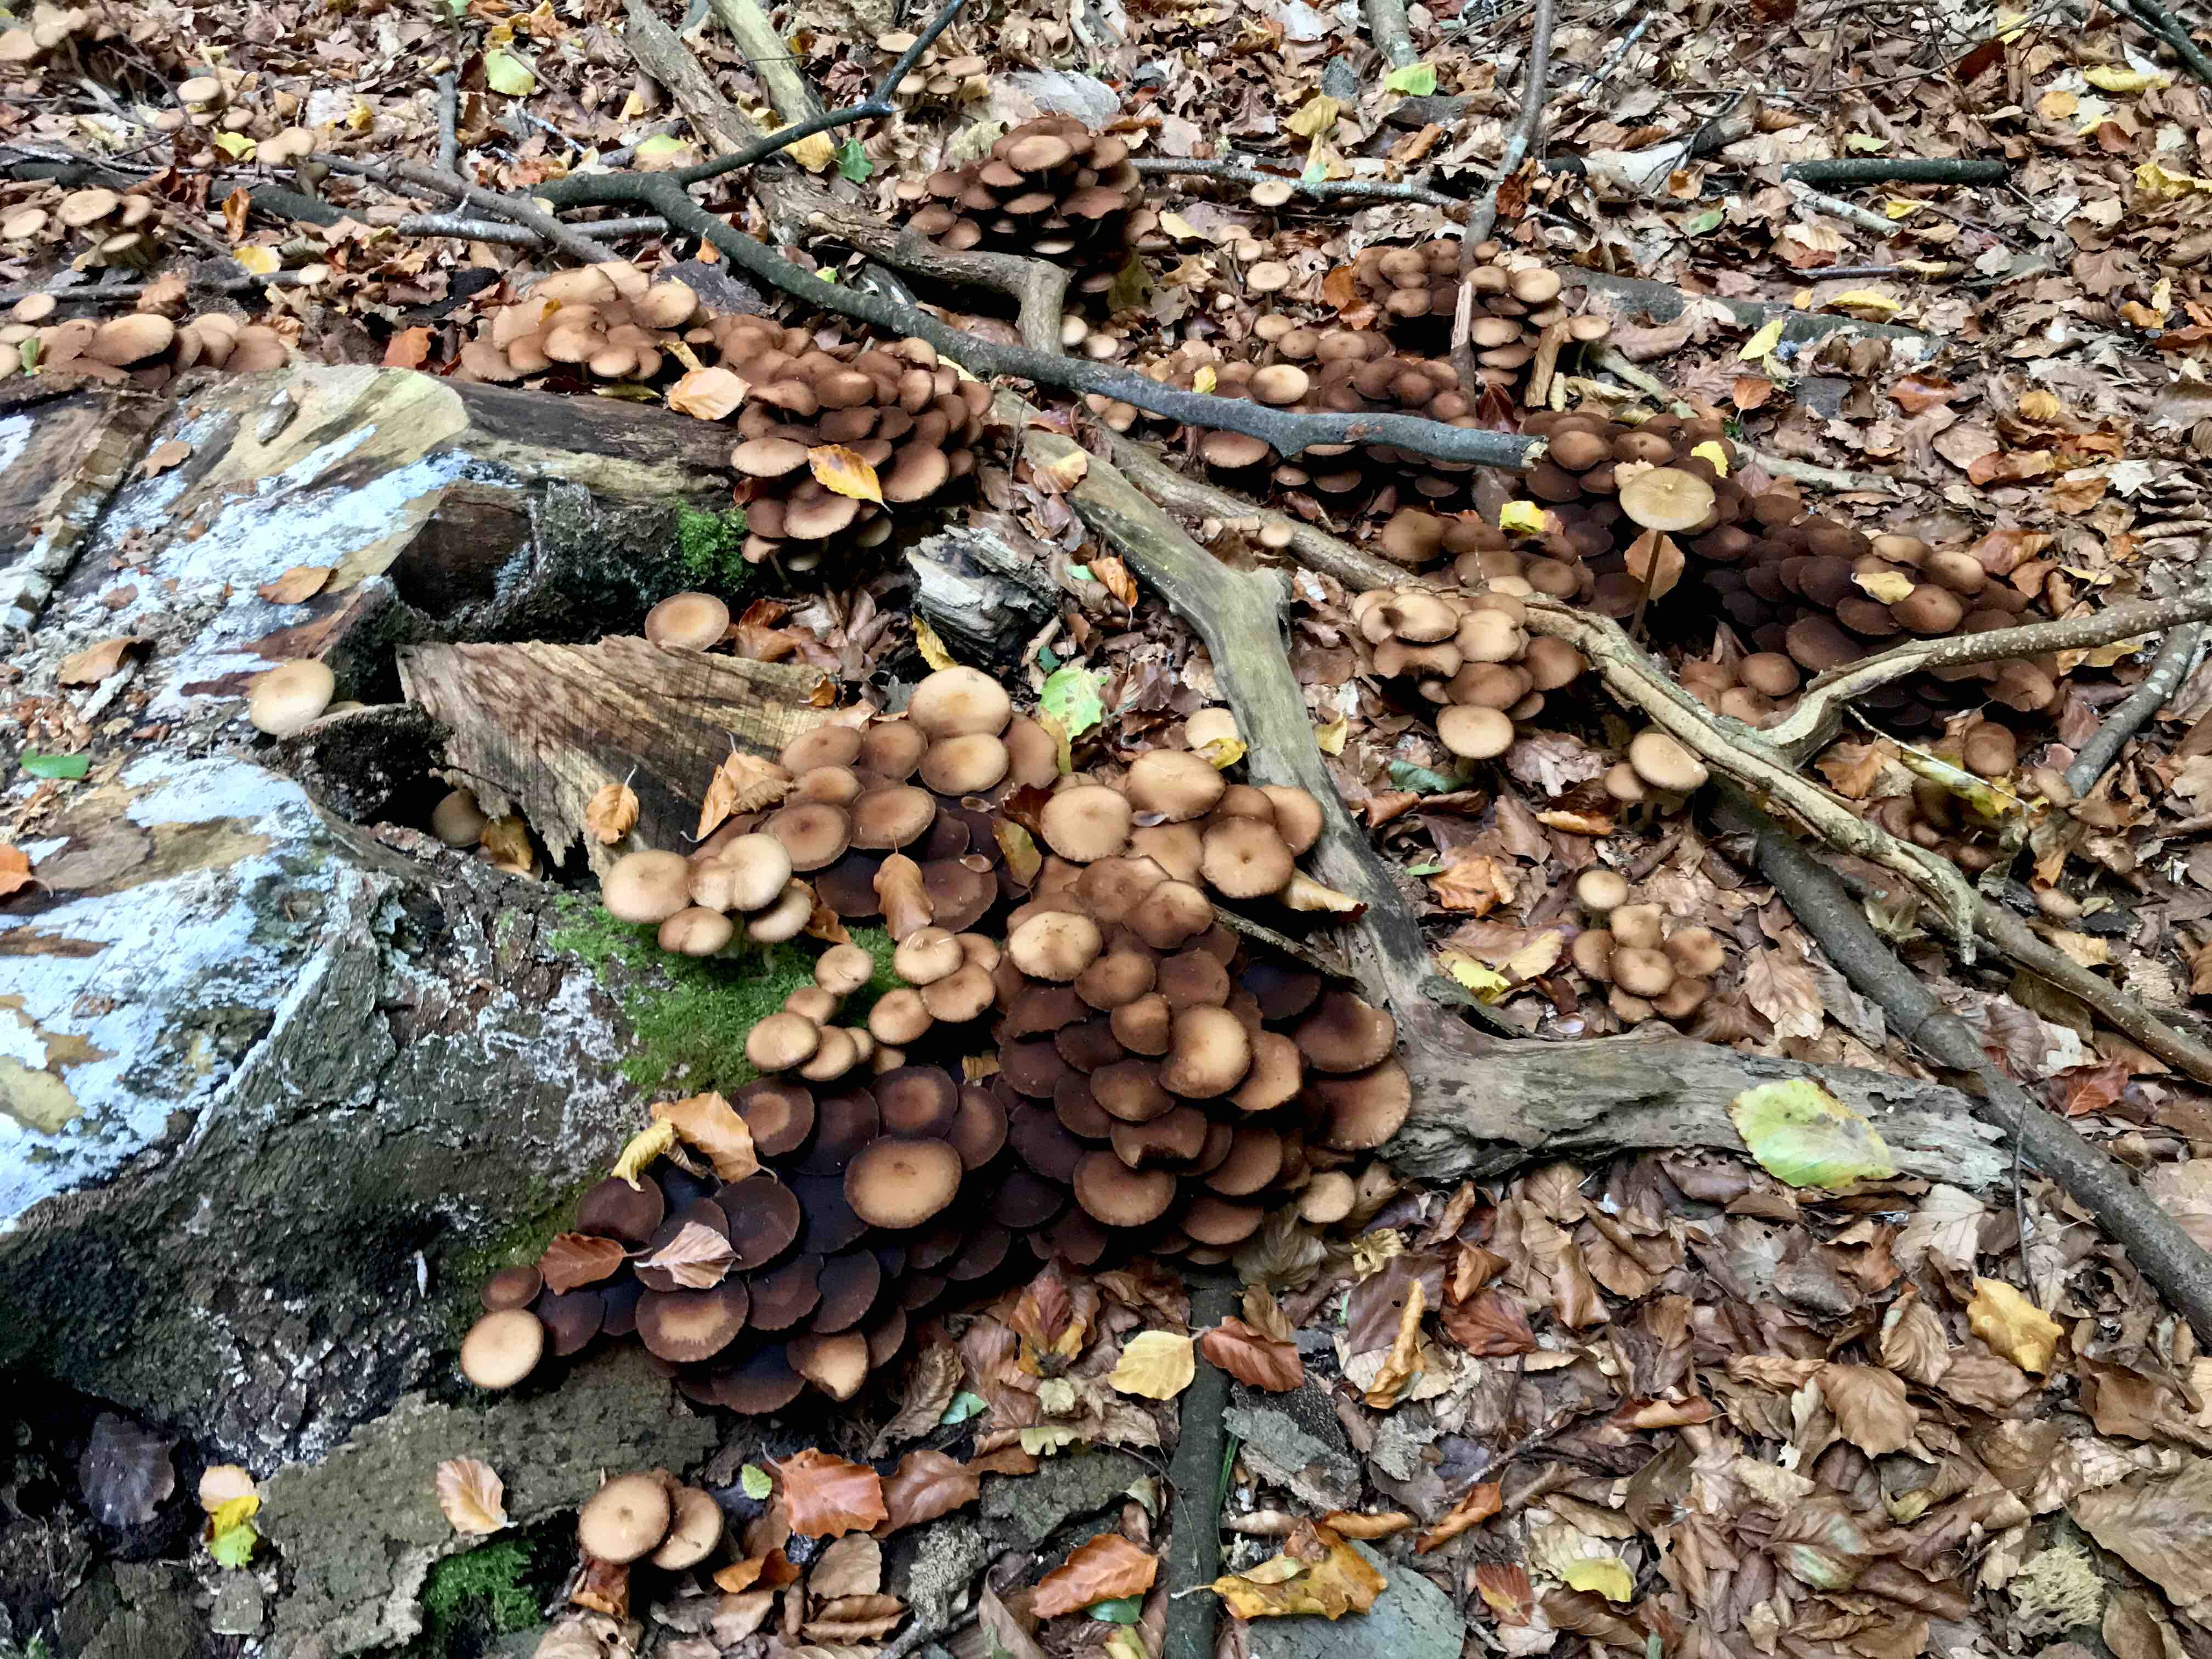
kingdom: Fungi
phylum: Basidiomycota
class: Agaricomycetes
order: Agaricales
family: Psathyrellaceae
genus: Psathyrella
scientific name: Psathyrella piluliformis
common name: lysstokket mørkhat
